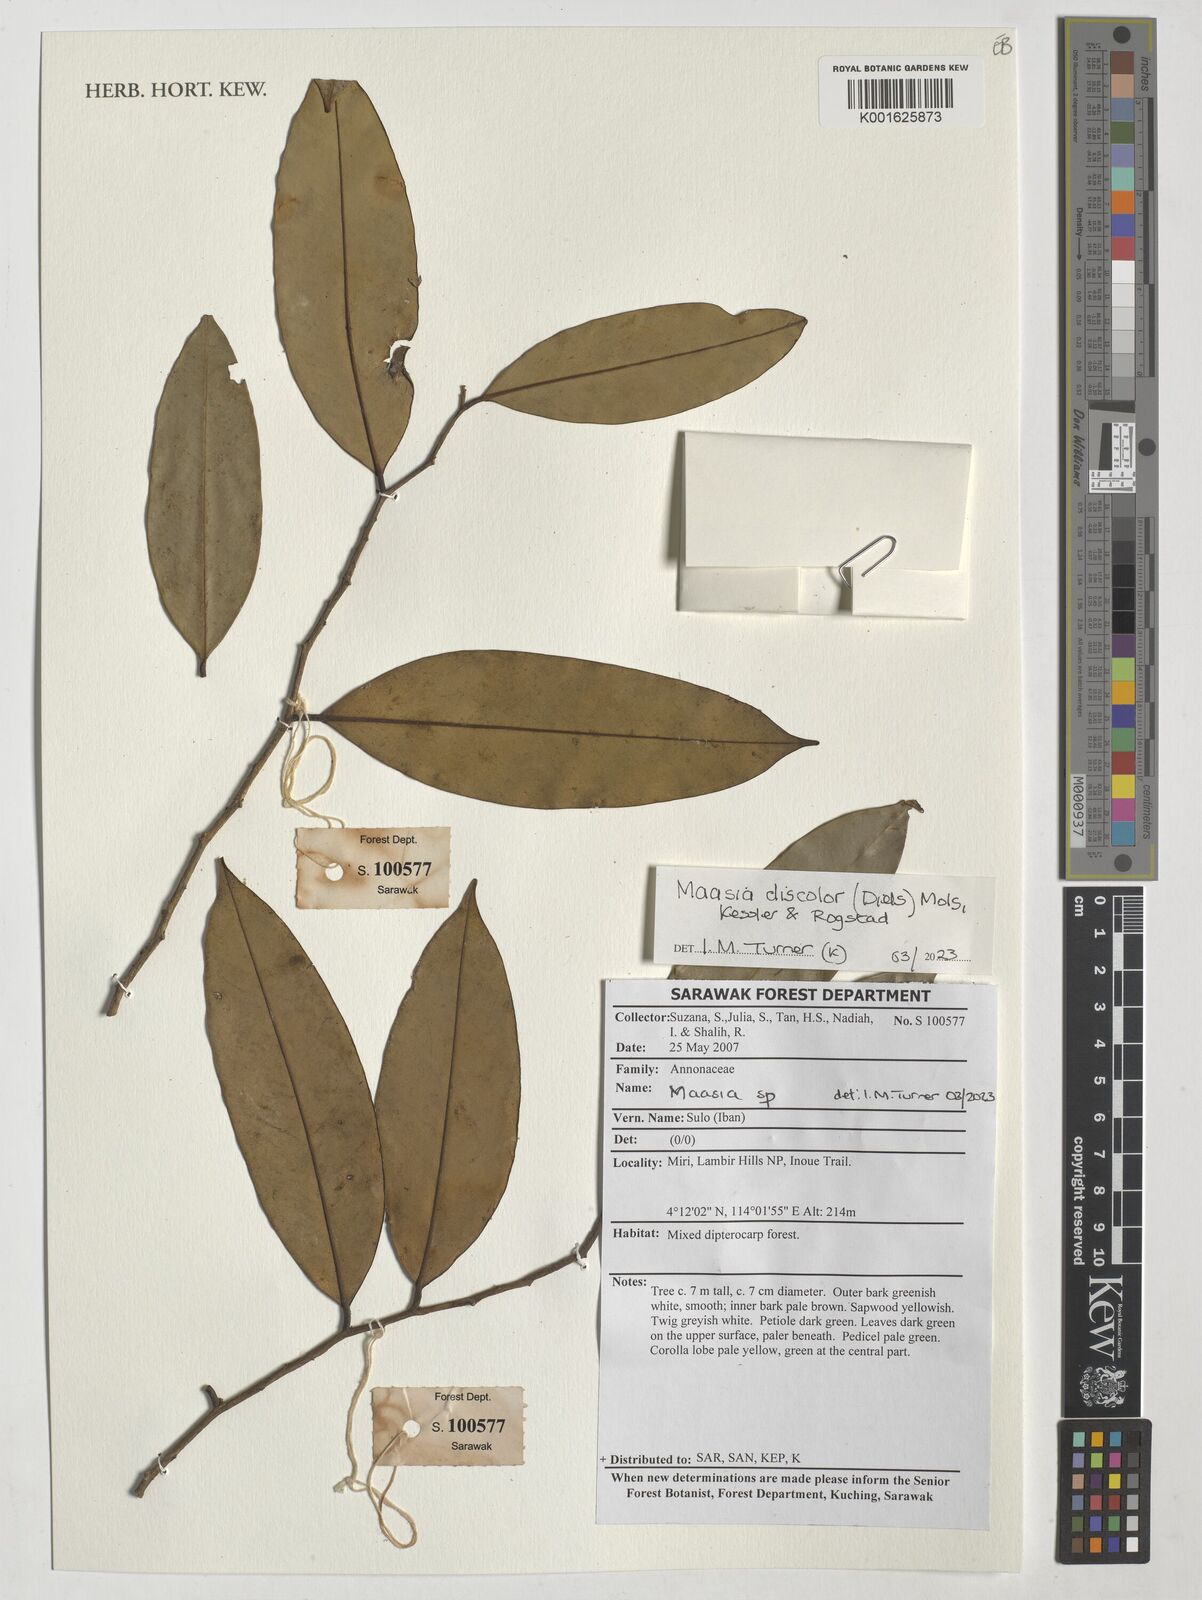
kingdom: Plantae
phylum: Tracheophyta
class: Magnoliopsida
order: Magnoliales
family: Annonaceae
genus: Maasia
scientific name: Maasia discolor
